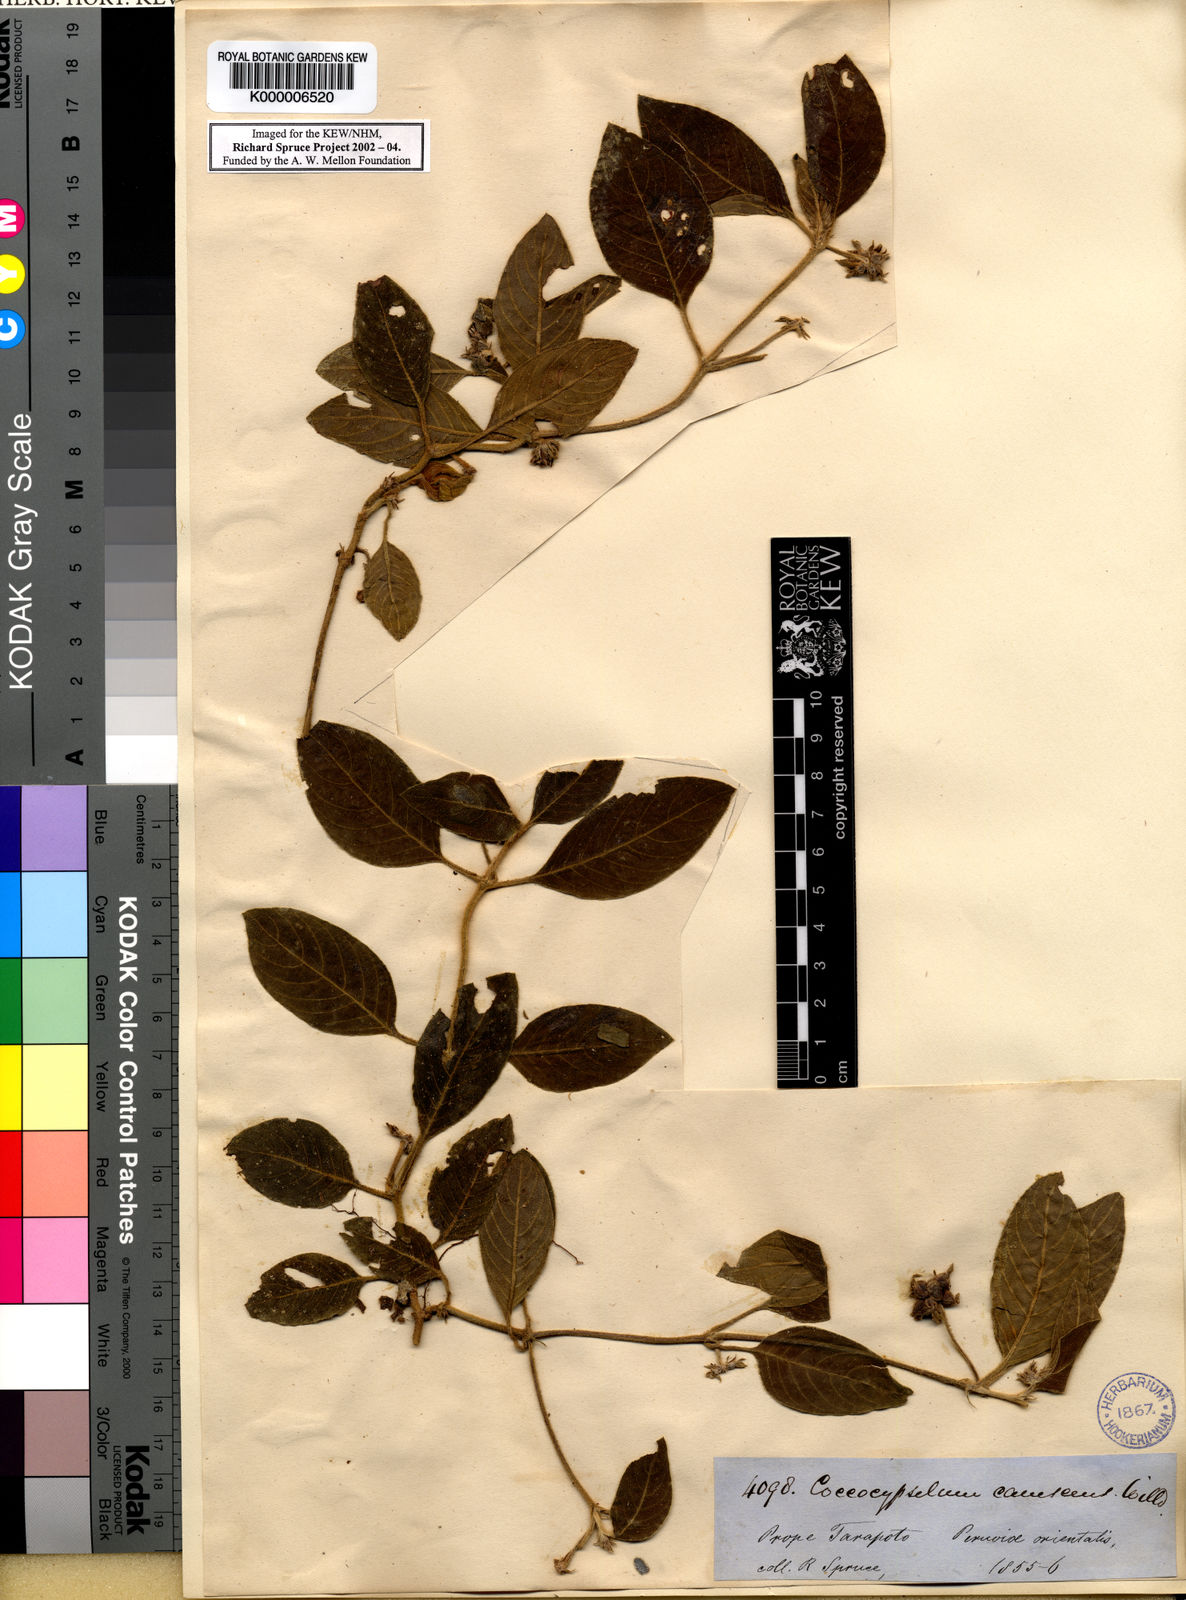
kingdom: Plantae
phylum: Tracheophyta
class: Magnoliopsida
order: Gentianales
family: Rubiaceae
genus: Coccocypselum
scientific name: Coccocypselum lanceolatum
